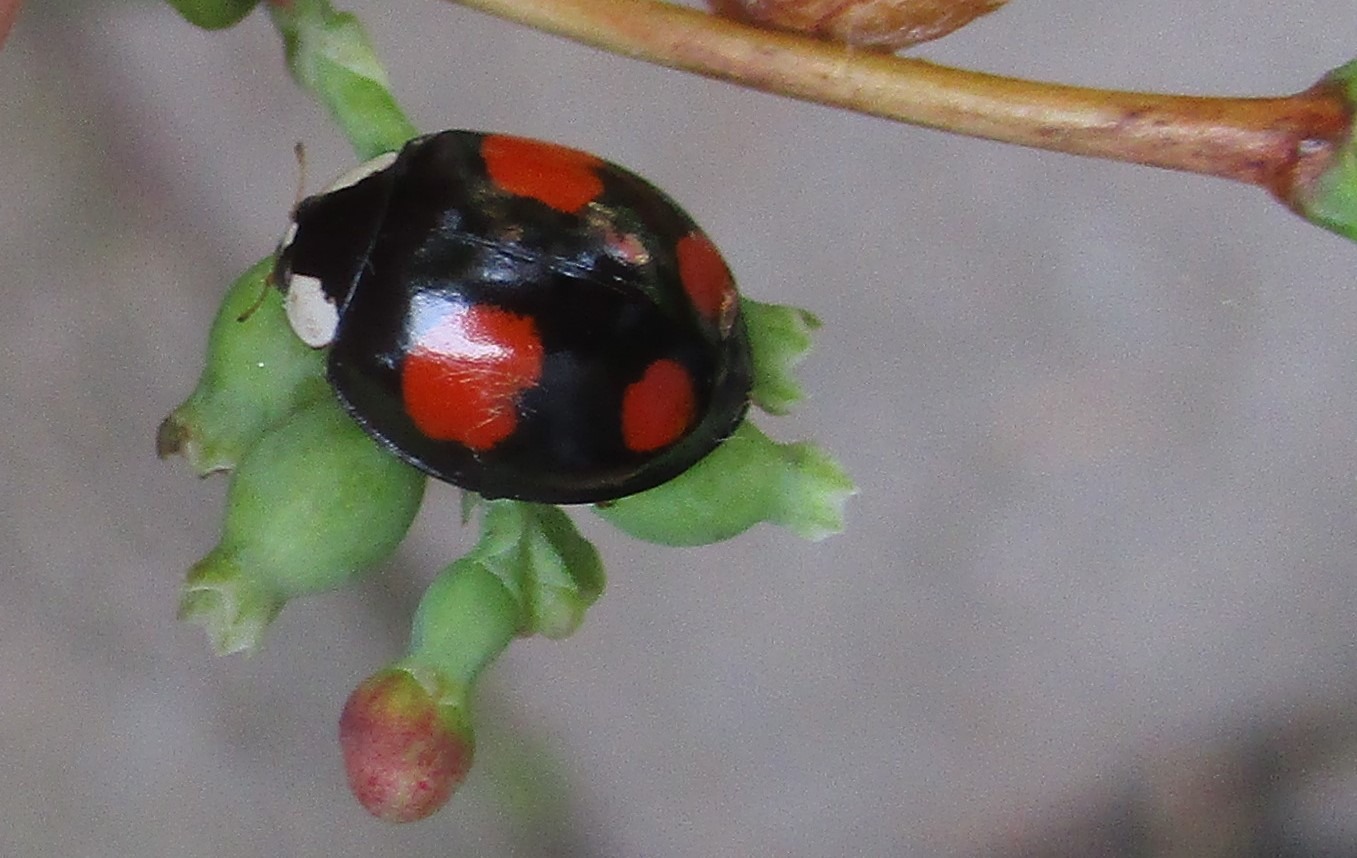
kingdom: Animalia
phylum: Arthropoda
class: Insecta
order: Coleoptera
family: Coccinellidae
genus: Harmonia
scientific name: Harmonia axyridis
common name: Harlekinmariehøne
